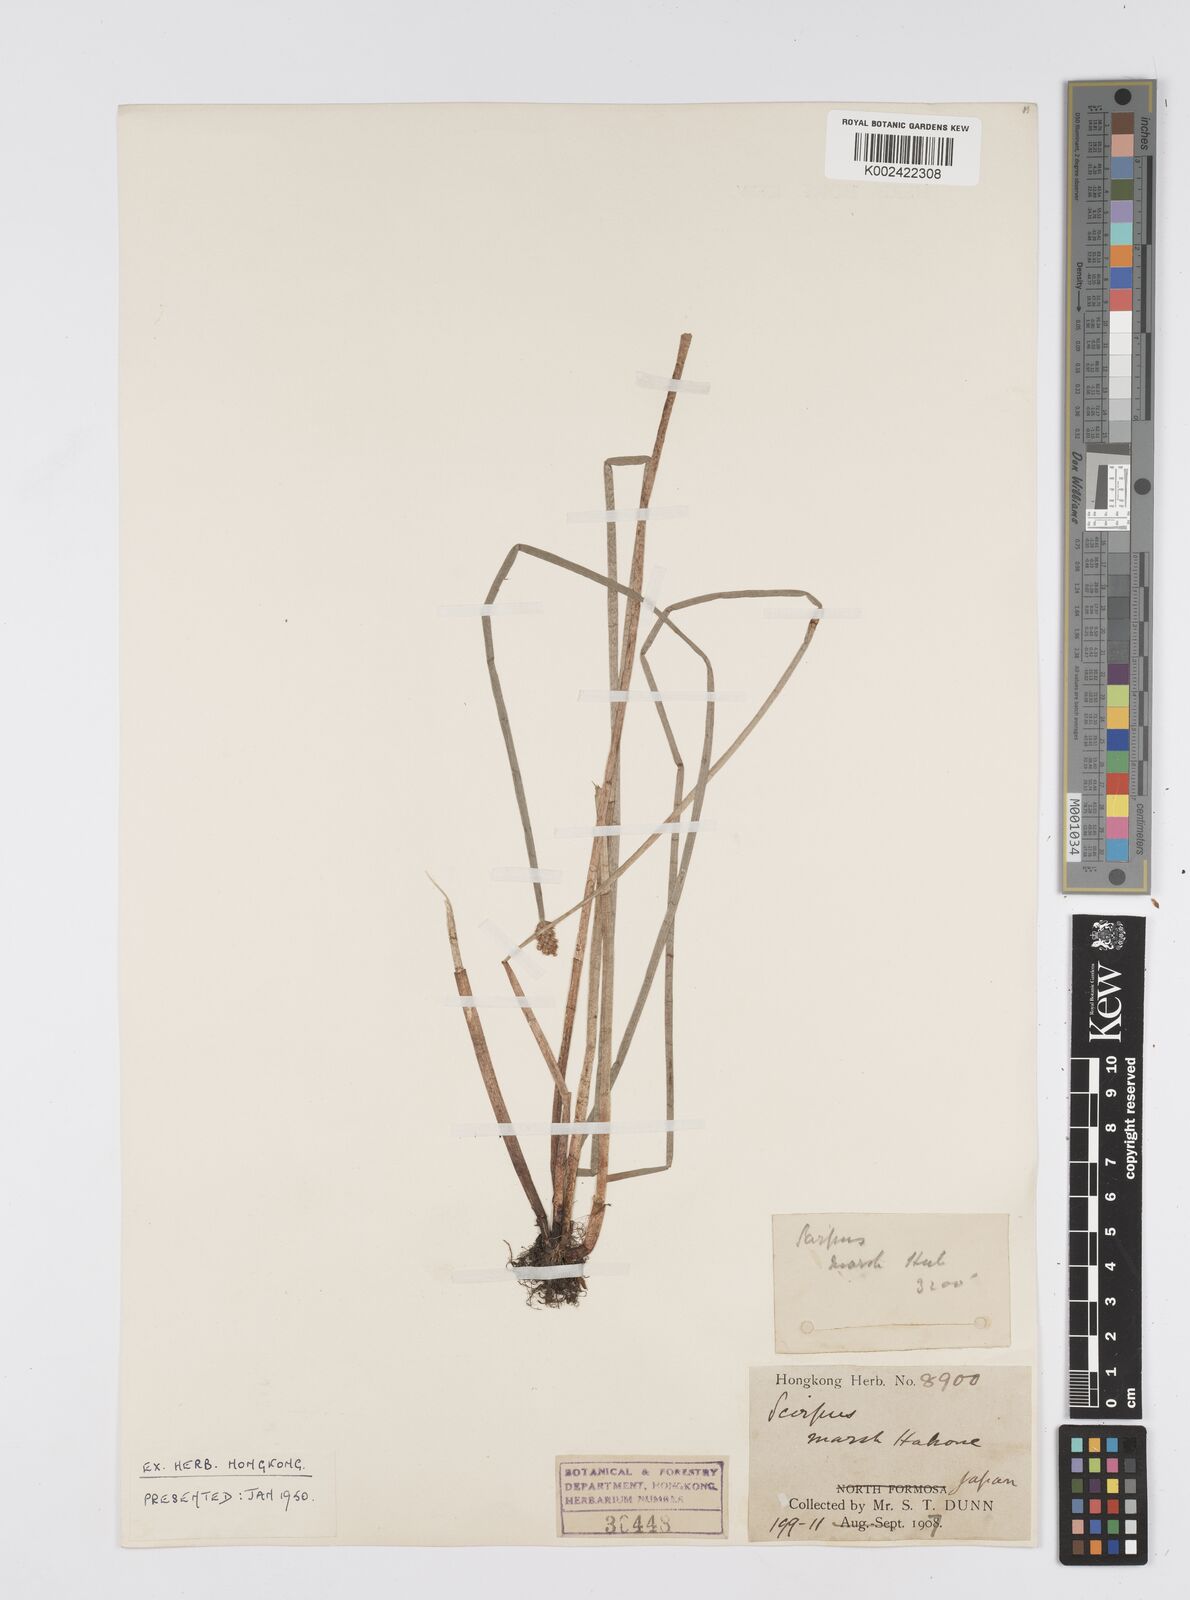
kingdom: Plantae
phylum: Tracheophyta
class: Liliopsida
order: Poales
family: Cyperaceae
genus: Eleocharis
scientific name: Eleocharis
